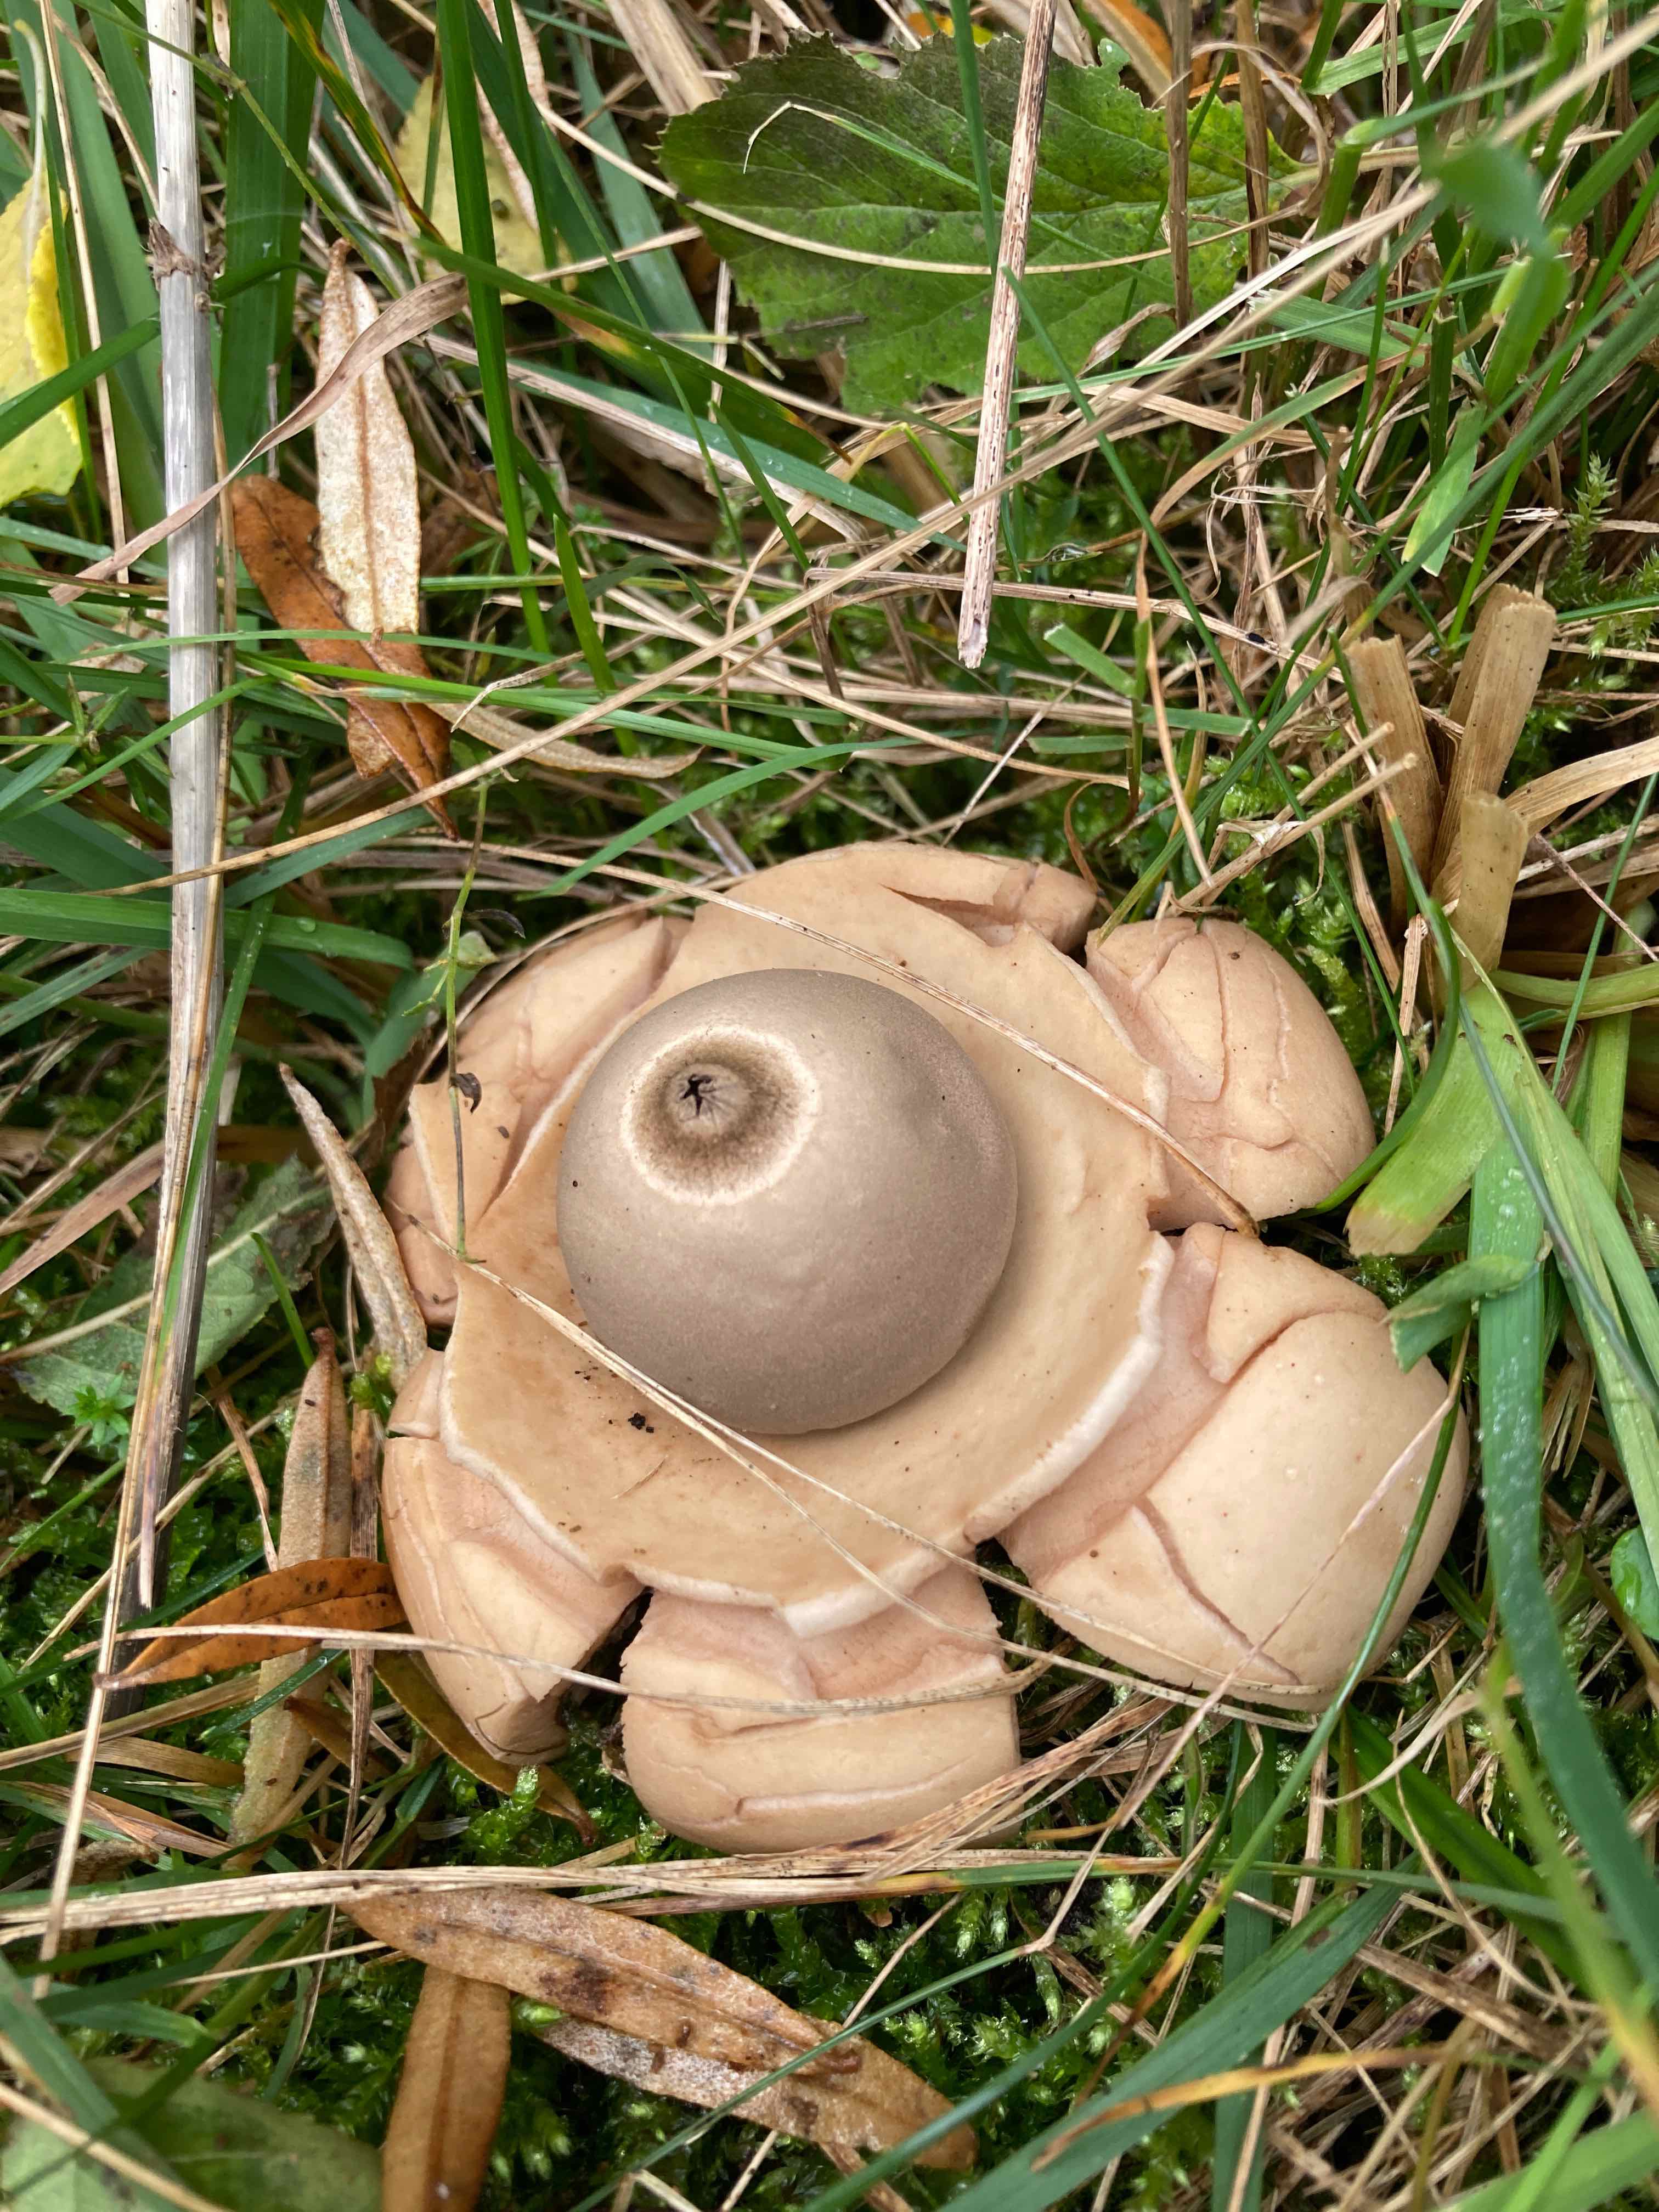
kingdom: Fungi
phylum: Basidiomycota
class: Agaricomycetes
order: Geastrales
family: Geastraceae
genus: Geastrum
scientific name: Geastrum michelianum
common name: kødet stjernebold
